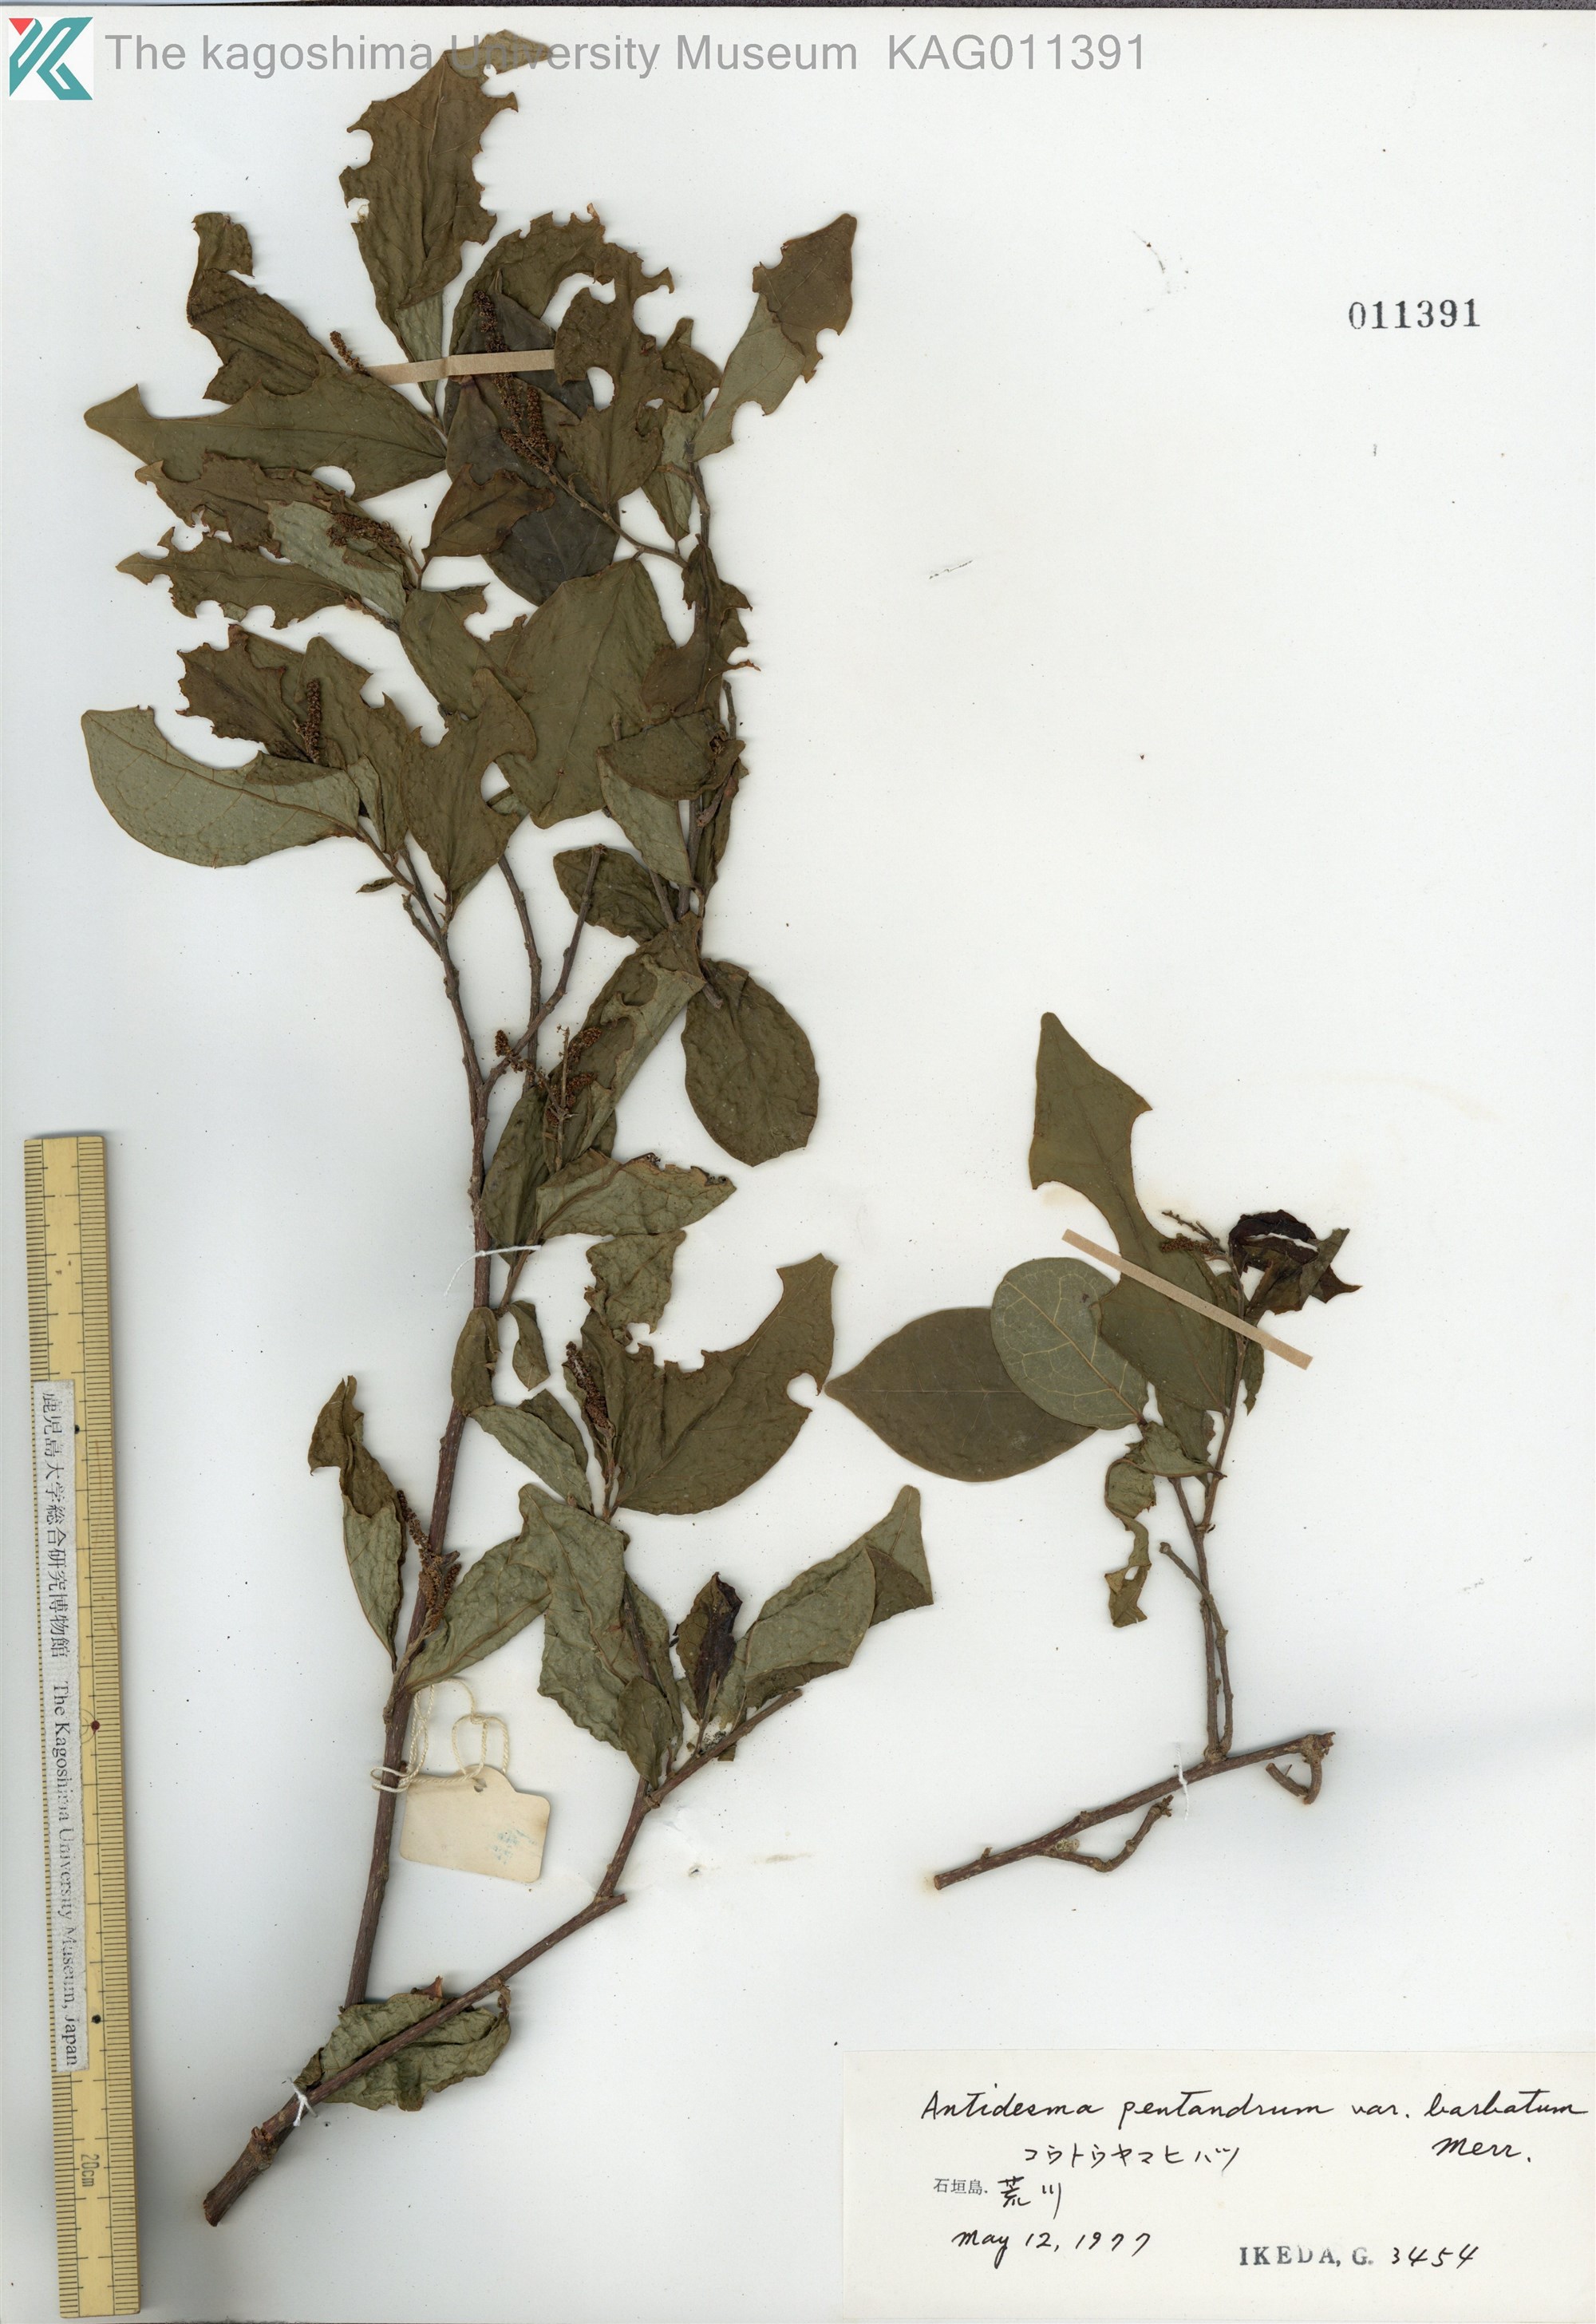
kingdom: Plantae
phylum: Tracheophyta
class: Magnoliopsida
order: Malpighiales
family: Phyllanthaceae
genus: Antidesma
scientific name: Antidesma montanum
